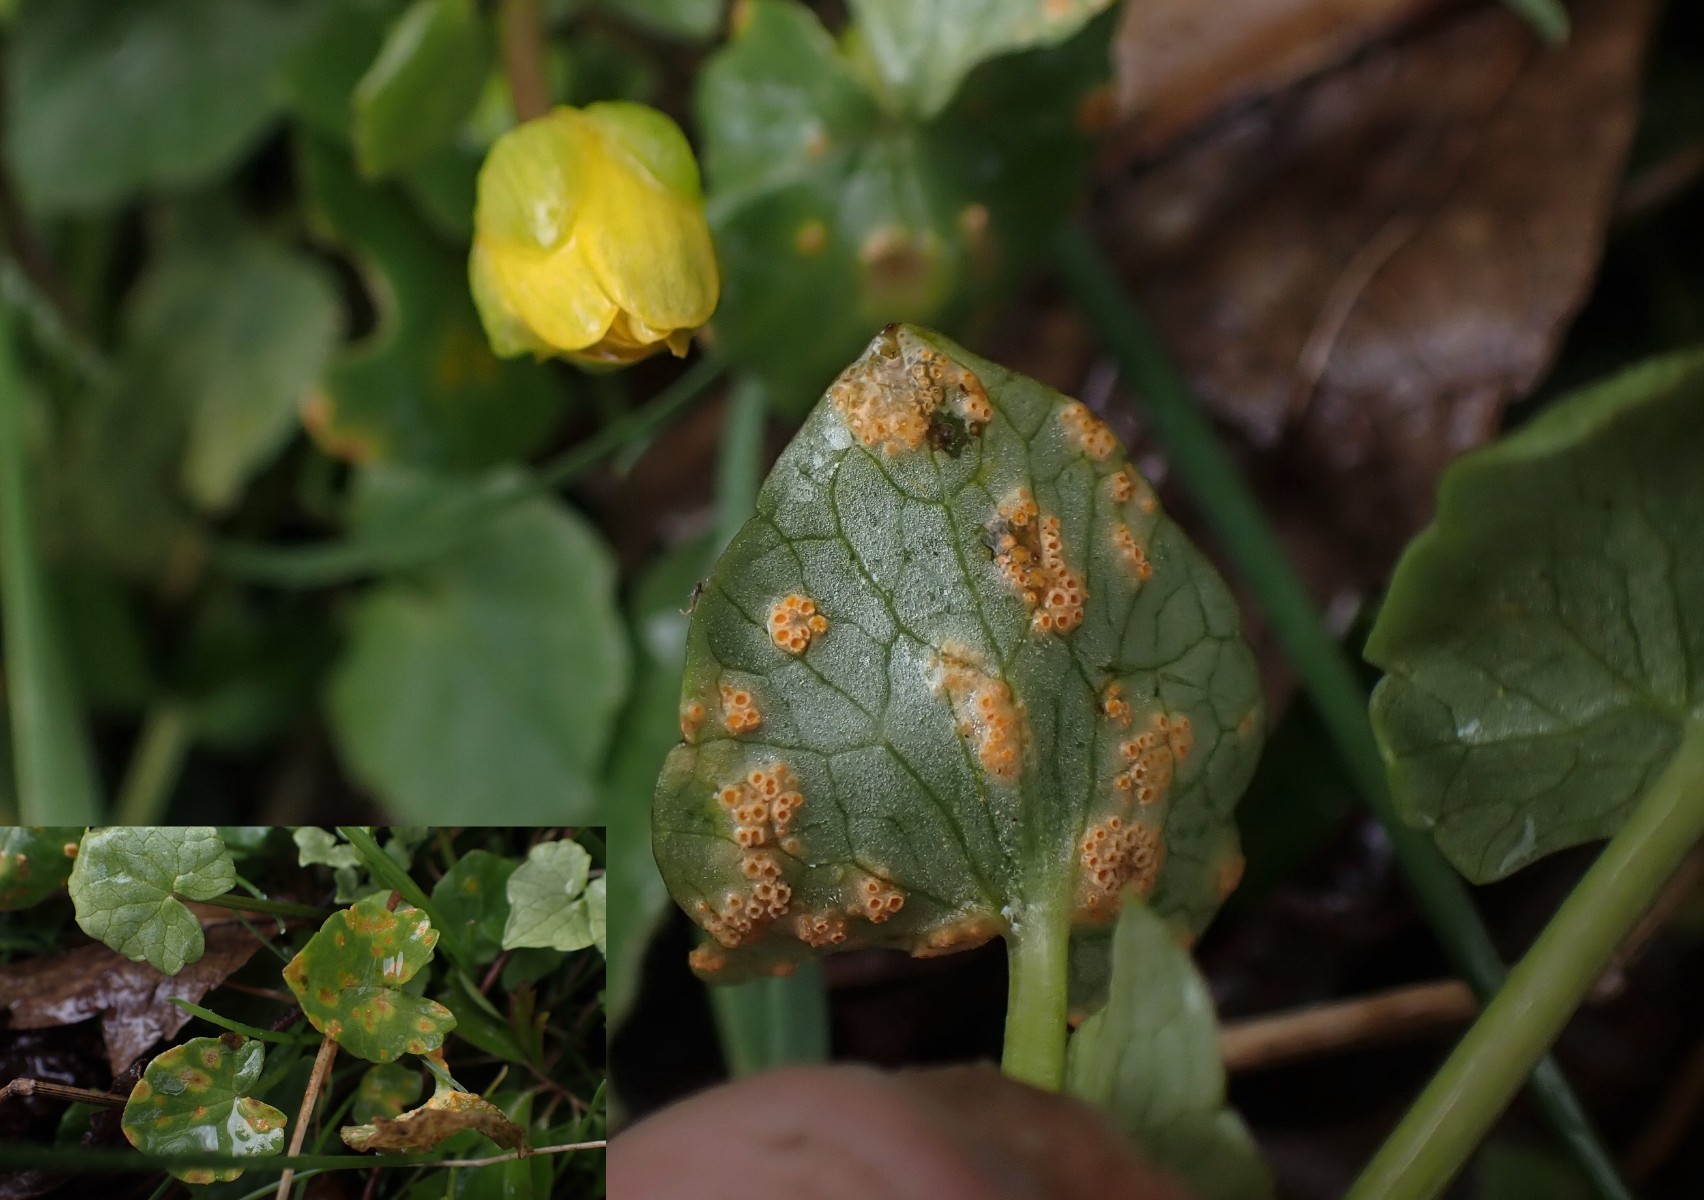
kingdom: Fungi
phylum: Basidiomycota
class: Pucciniomycetes
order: Pucciniales
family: Pucciniaceae
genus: Uromyces
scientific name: Uromyces dactylidis
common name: ranunkel-encellerust
